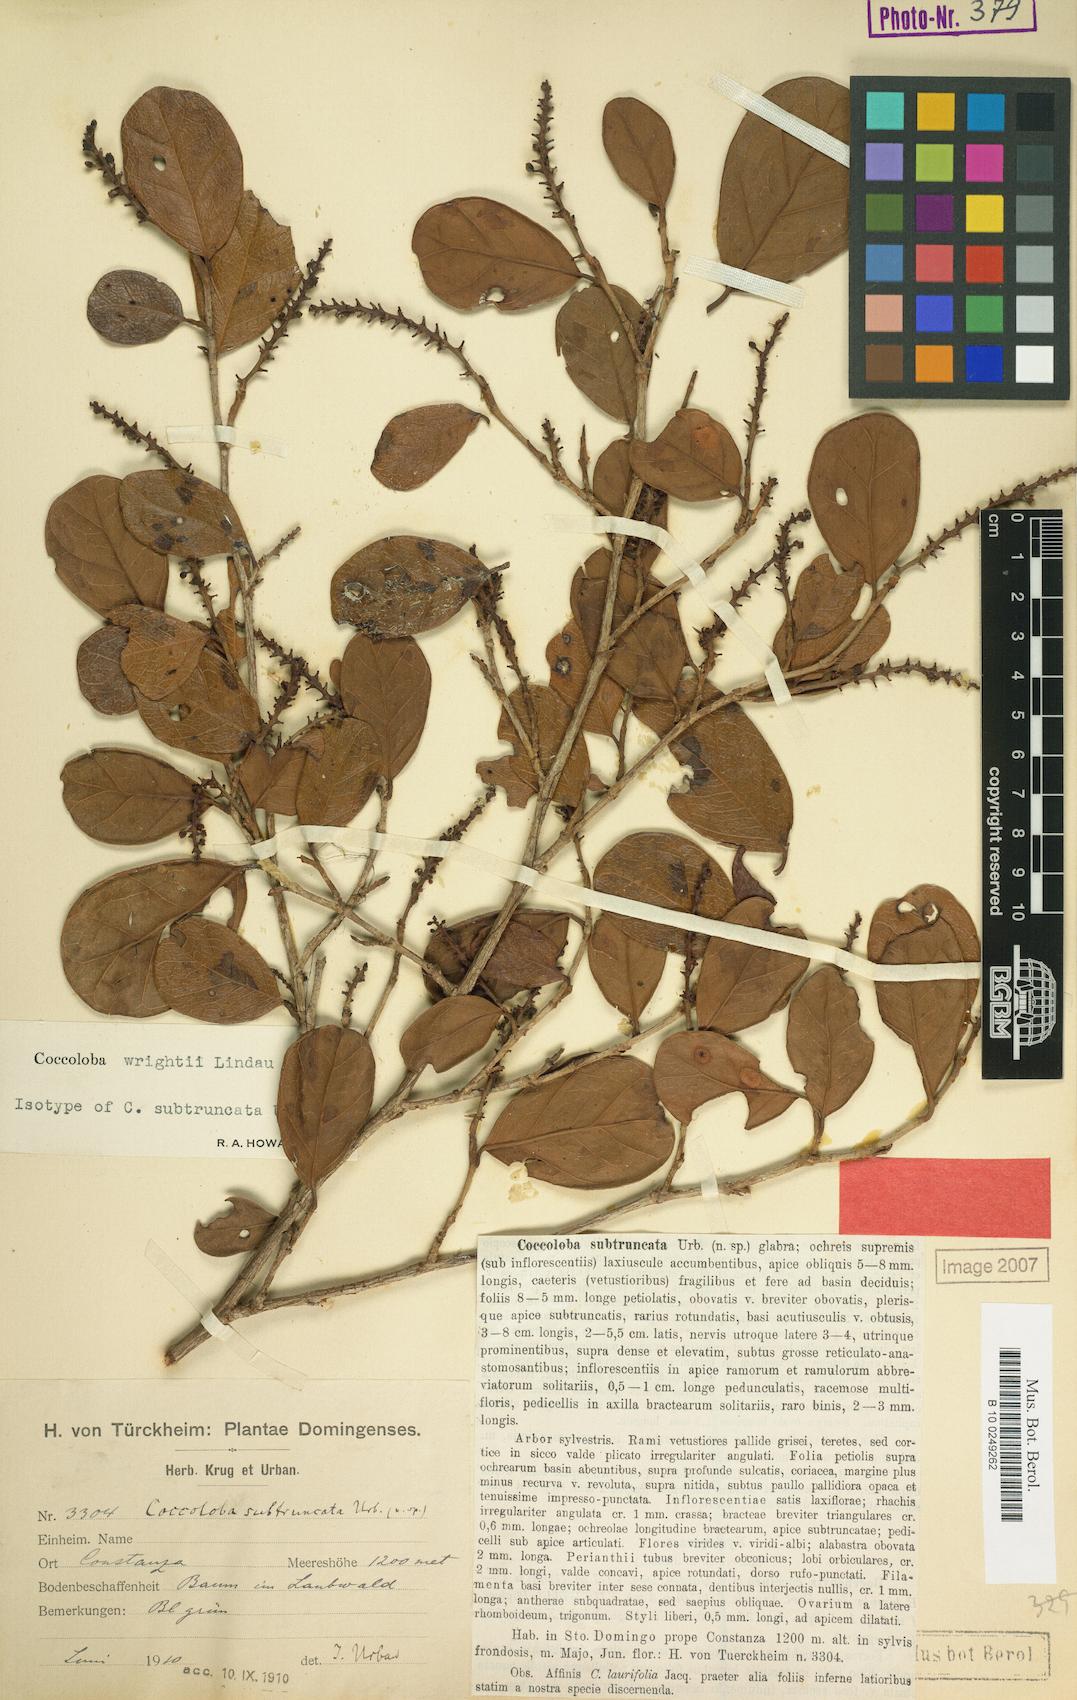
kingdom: Plantae
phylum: Tracheophyta
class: Magnoliopsida
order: Caryophyllales
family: Polygonaceae
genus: Coccoloba
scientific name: Coccoloba wrightii
